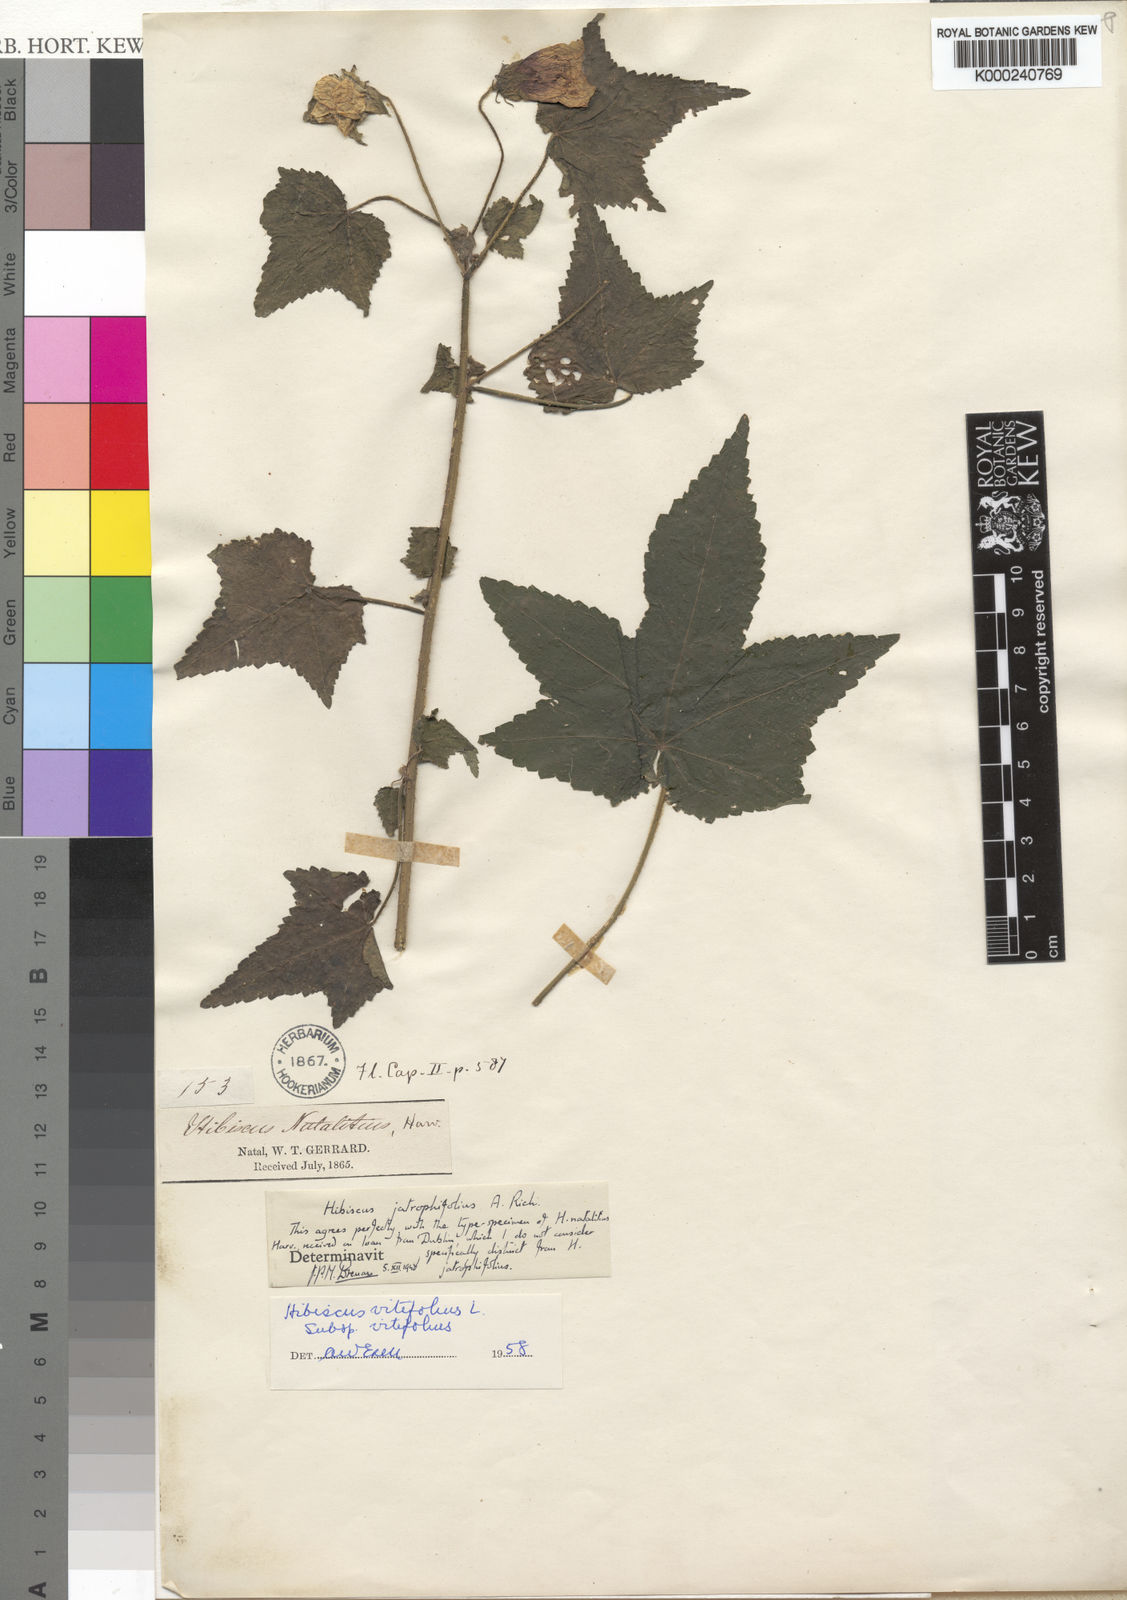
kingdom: Plantae
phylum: Tracheophyta
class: Magnoliopsida
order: Malvales
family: Malvaceae
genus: Hibiscus
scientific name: Hibiscus vitifolius
